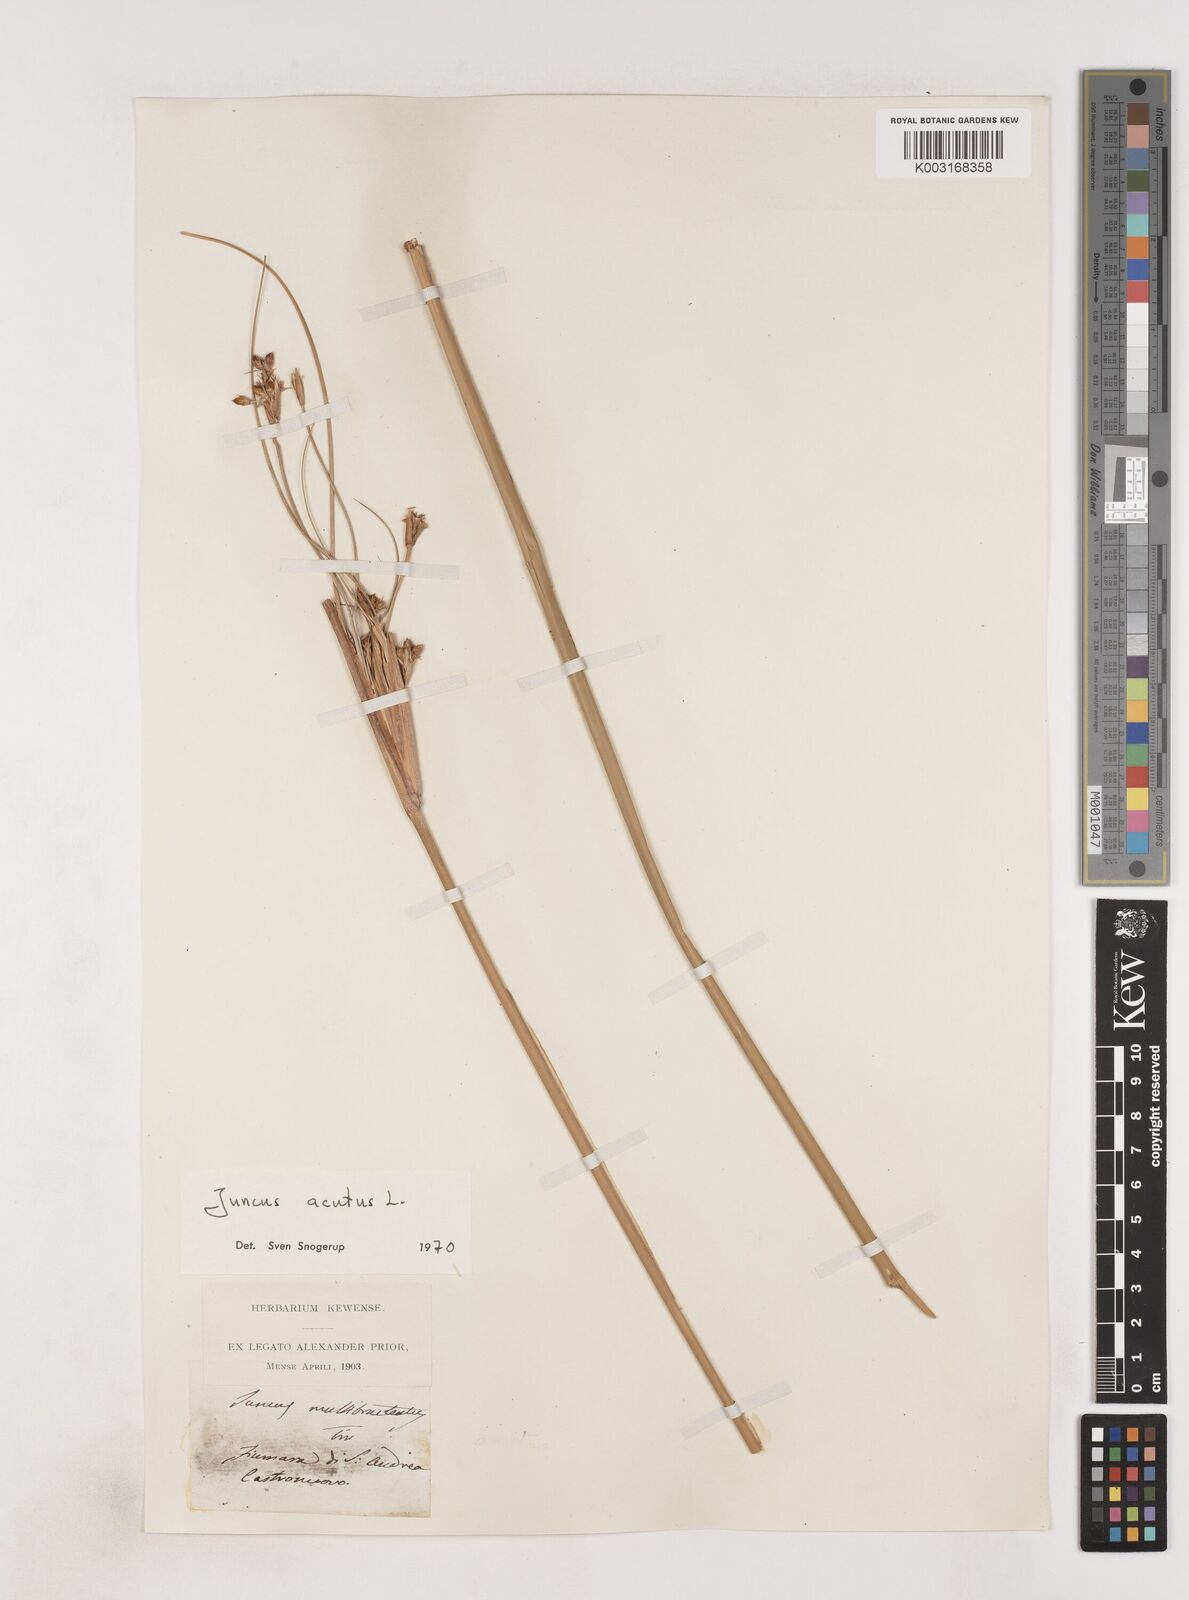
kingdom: Plantae
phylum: Tracheophyta
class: Liliopsida
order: Poales
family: Juncaceae
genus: Juncus
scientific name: Juncus acutus
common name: Sharp rush
